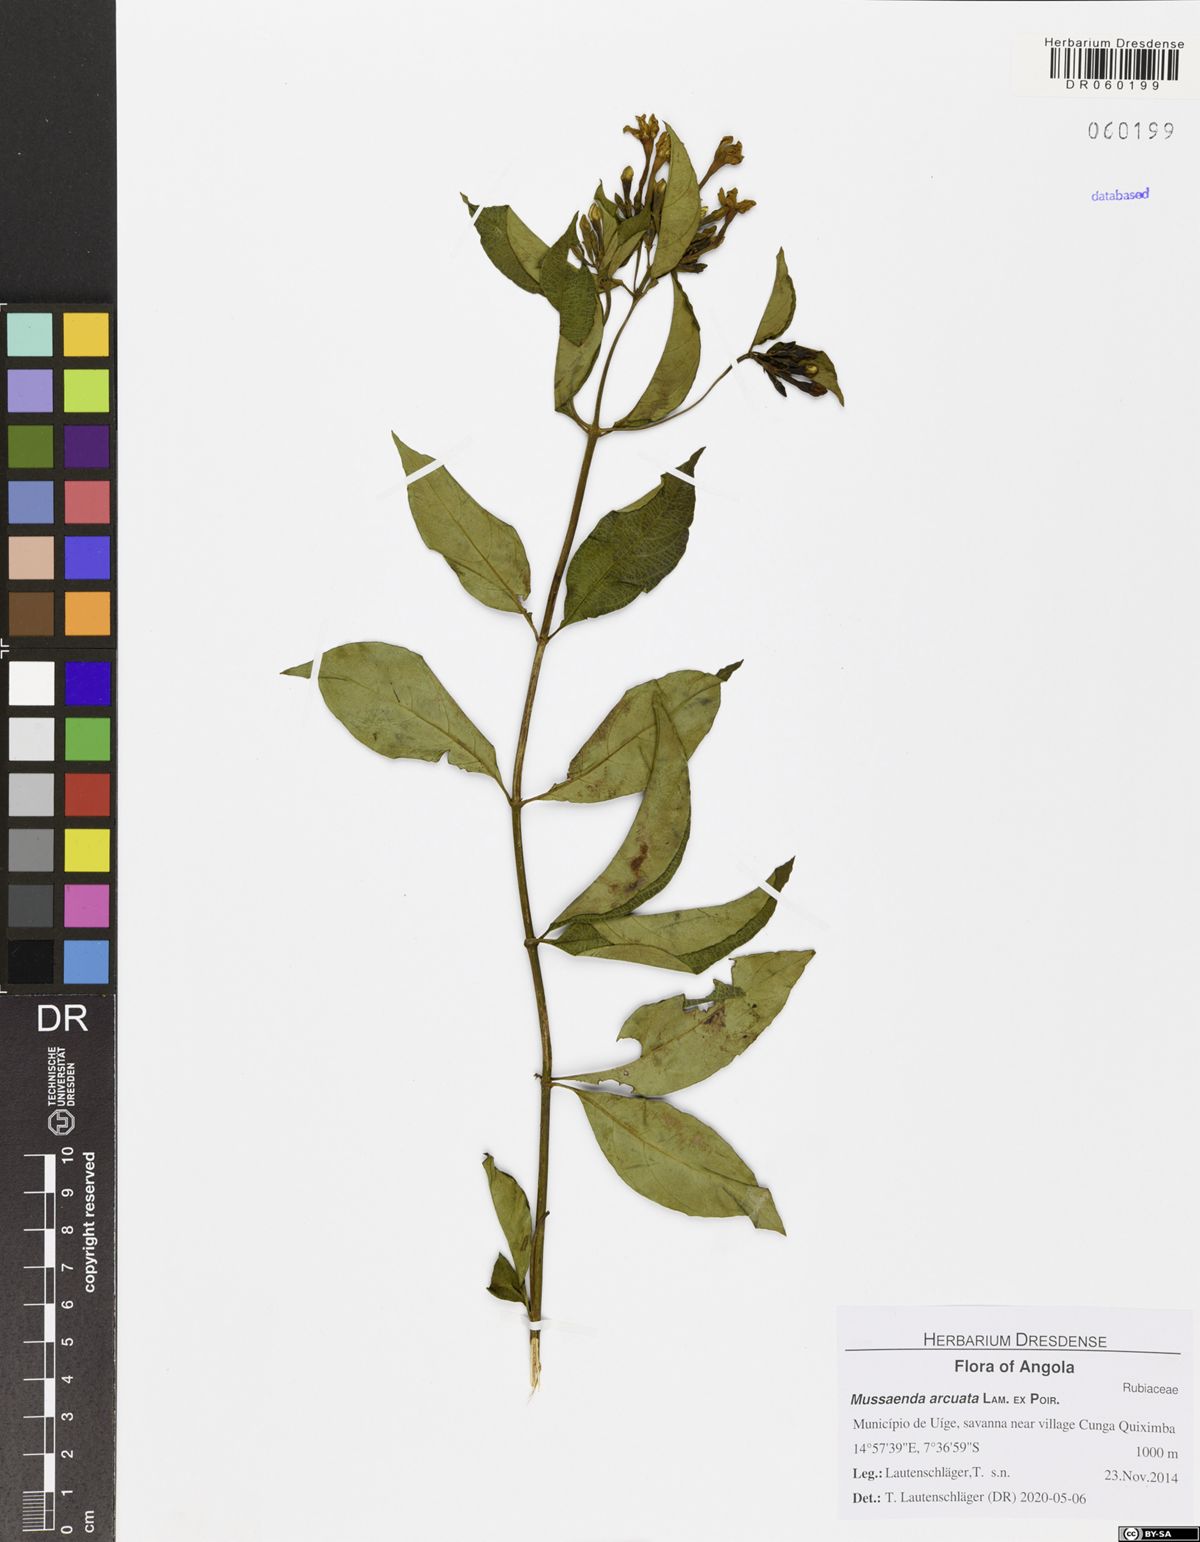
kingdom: Plantae
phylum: Tracheophyta
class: Magnoliopsida
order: Gentianales
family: Rubiaceae
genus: Mussaenda
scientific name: Mussaenda arcuata
